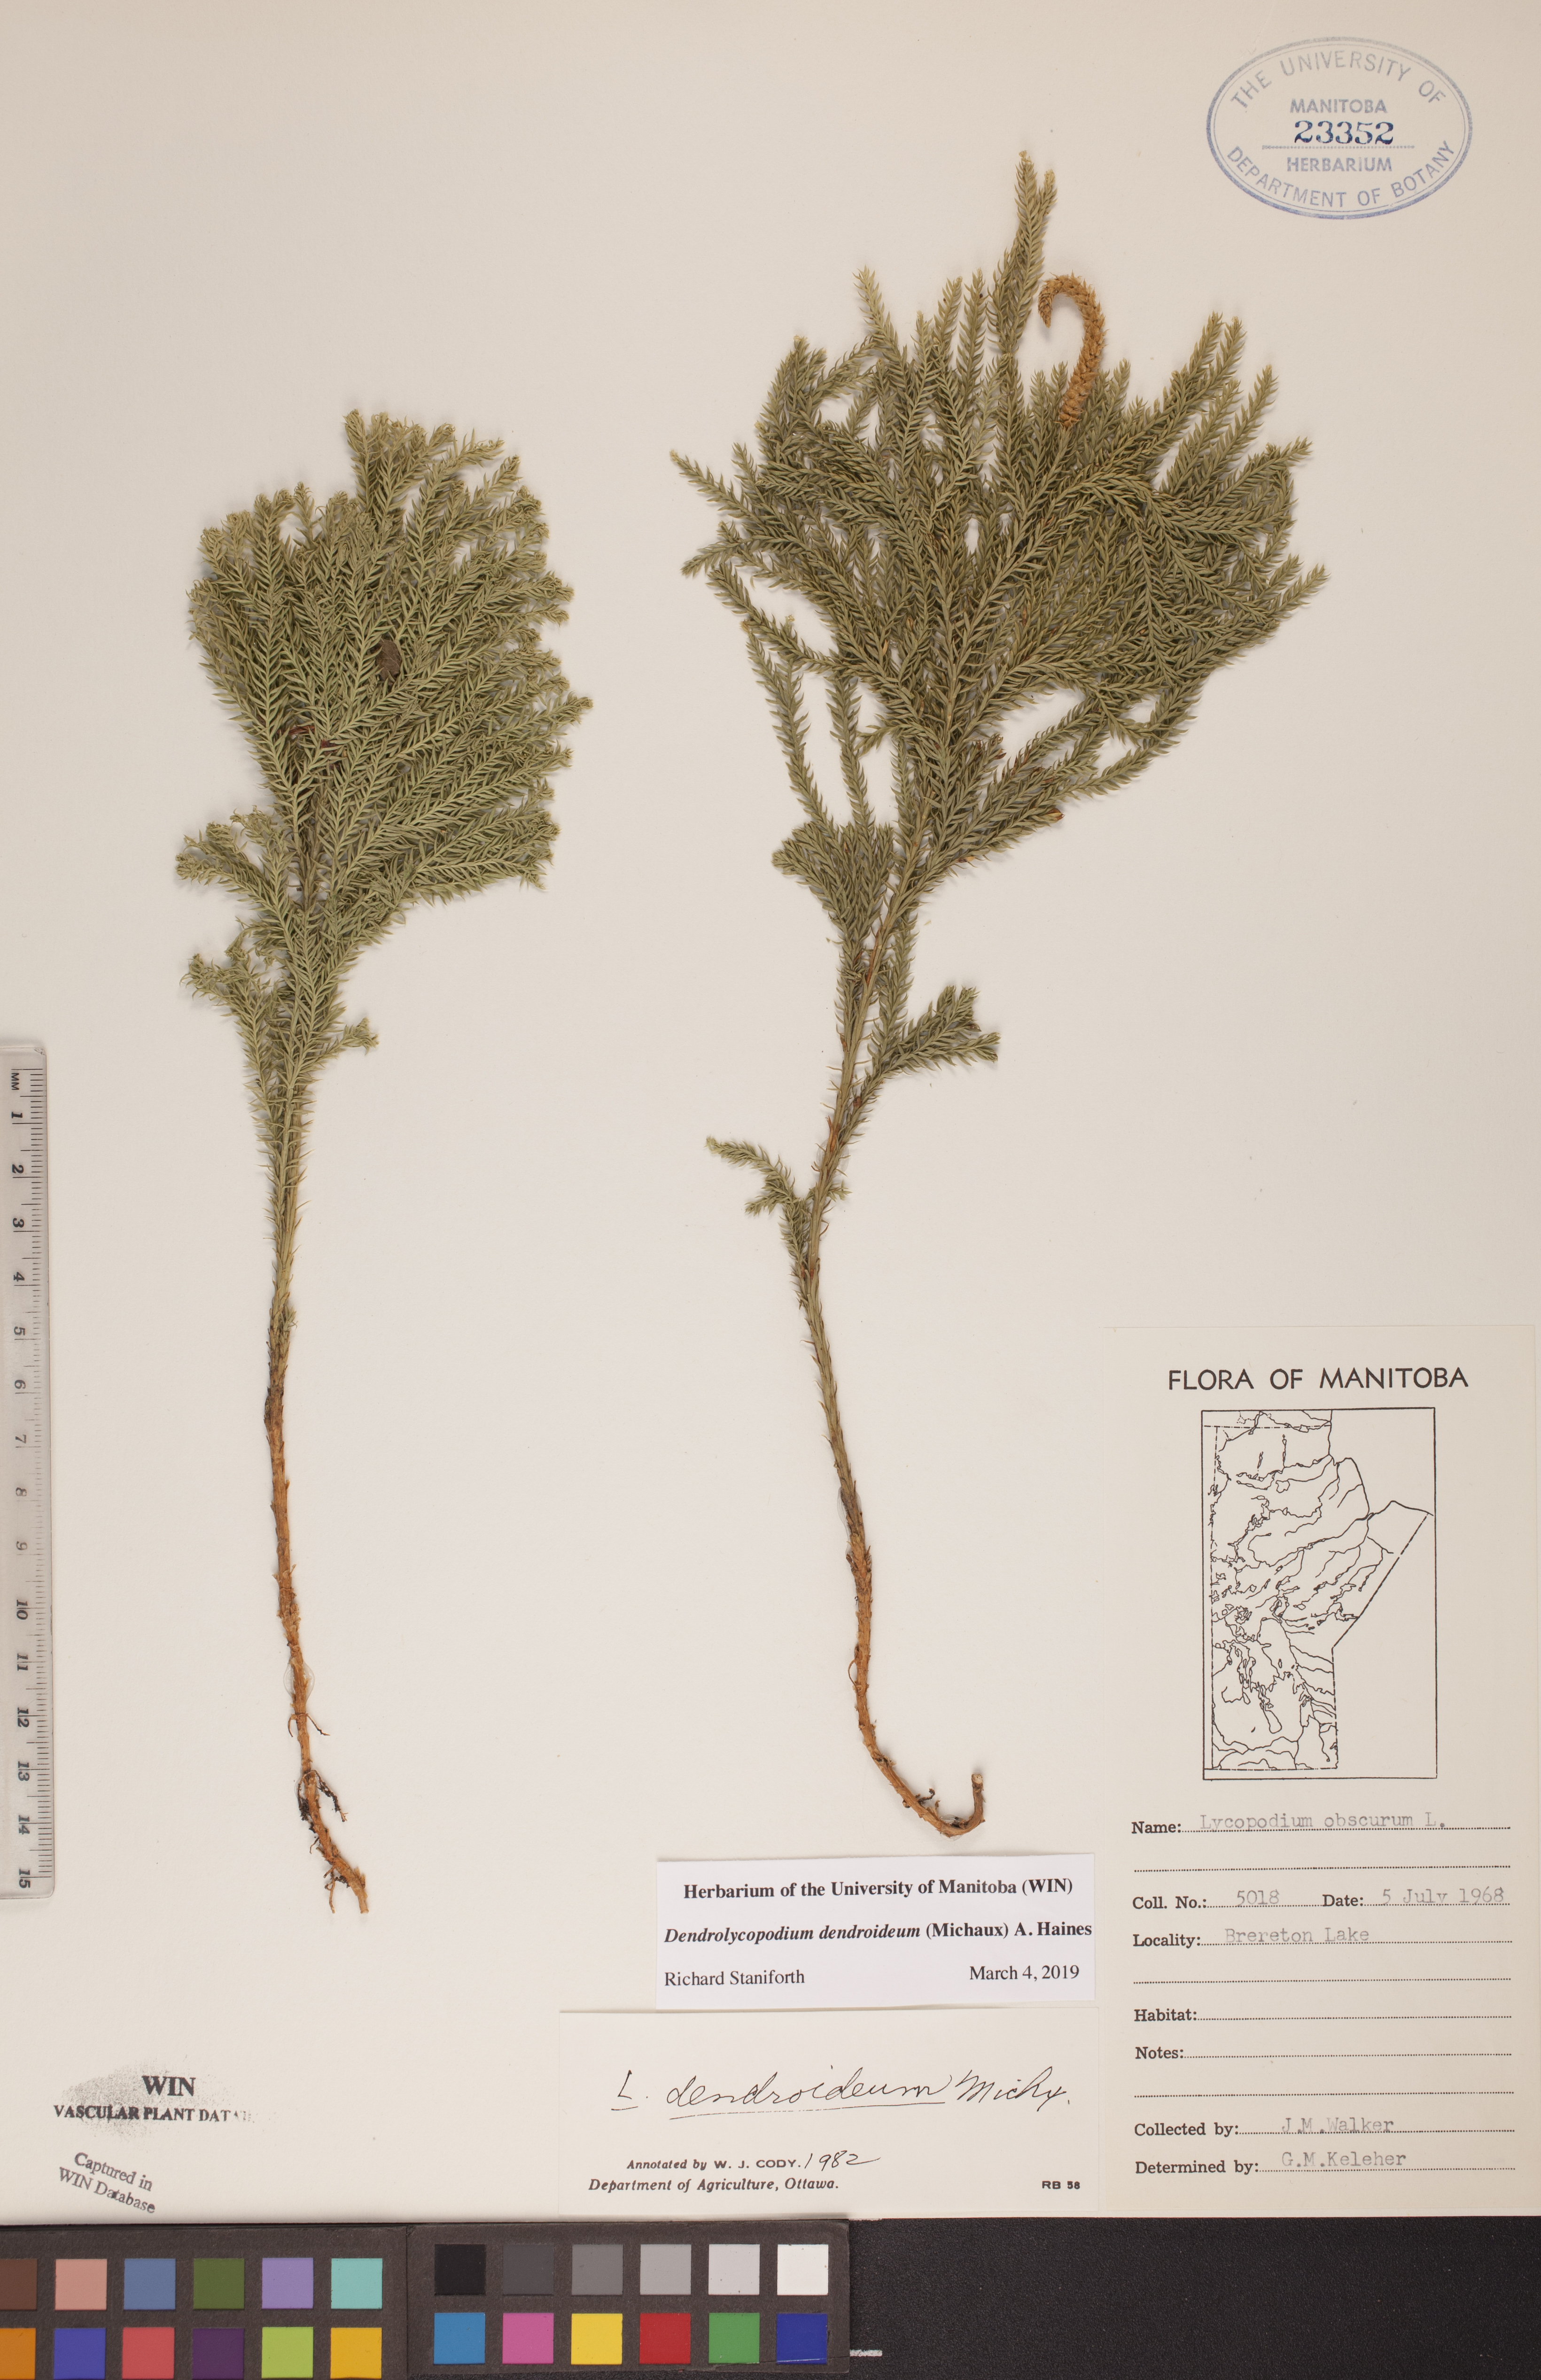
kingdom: Plantae
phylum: Tracheophyta
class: Lycopodiopsida
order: Lycopodiales
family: Lycopodiaceae
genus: Dendrolycopodium
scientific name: Dendrolycopodium dendroideum
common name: Northern tree-clubmoss
